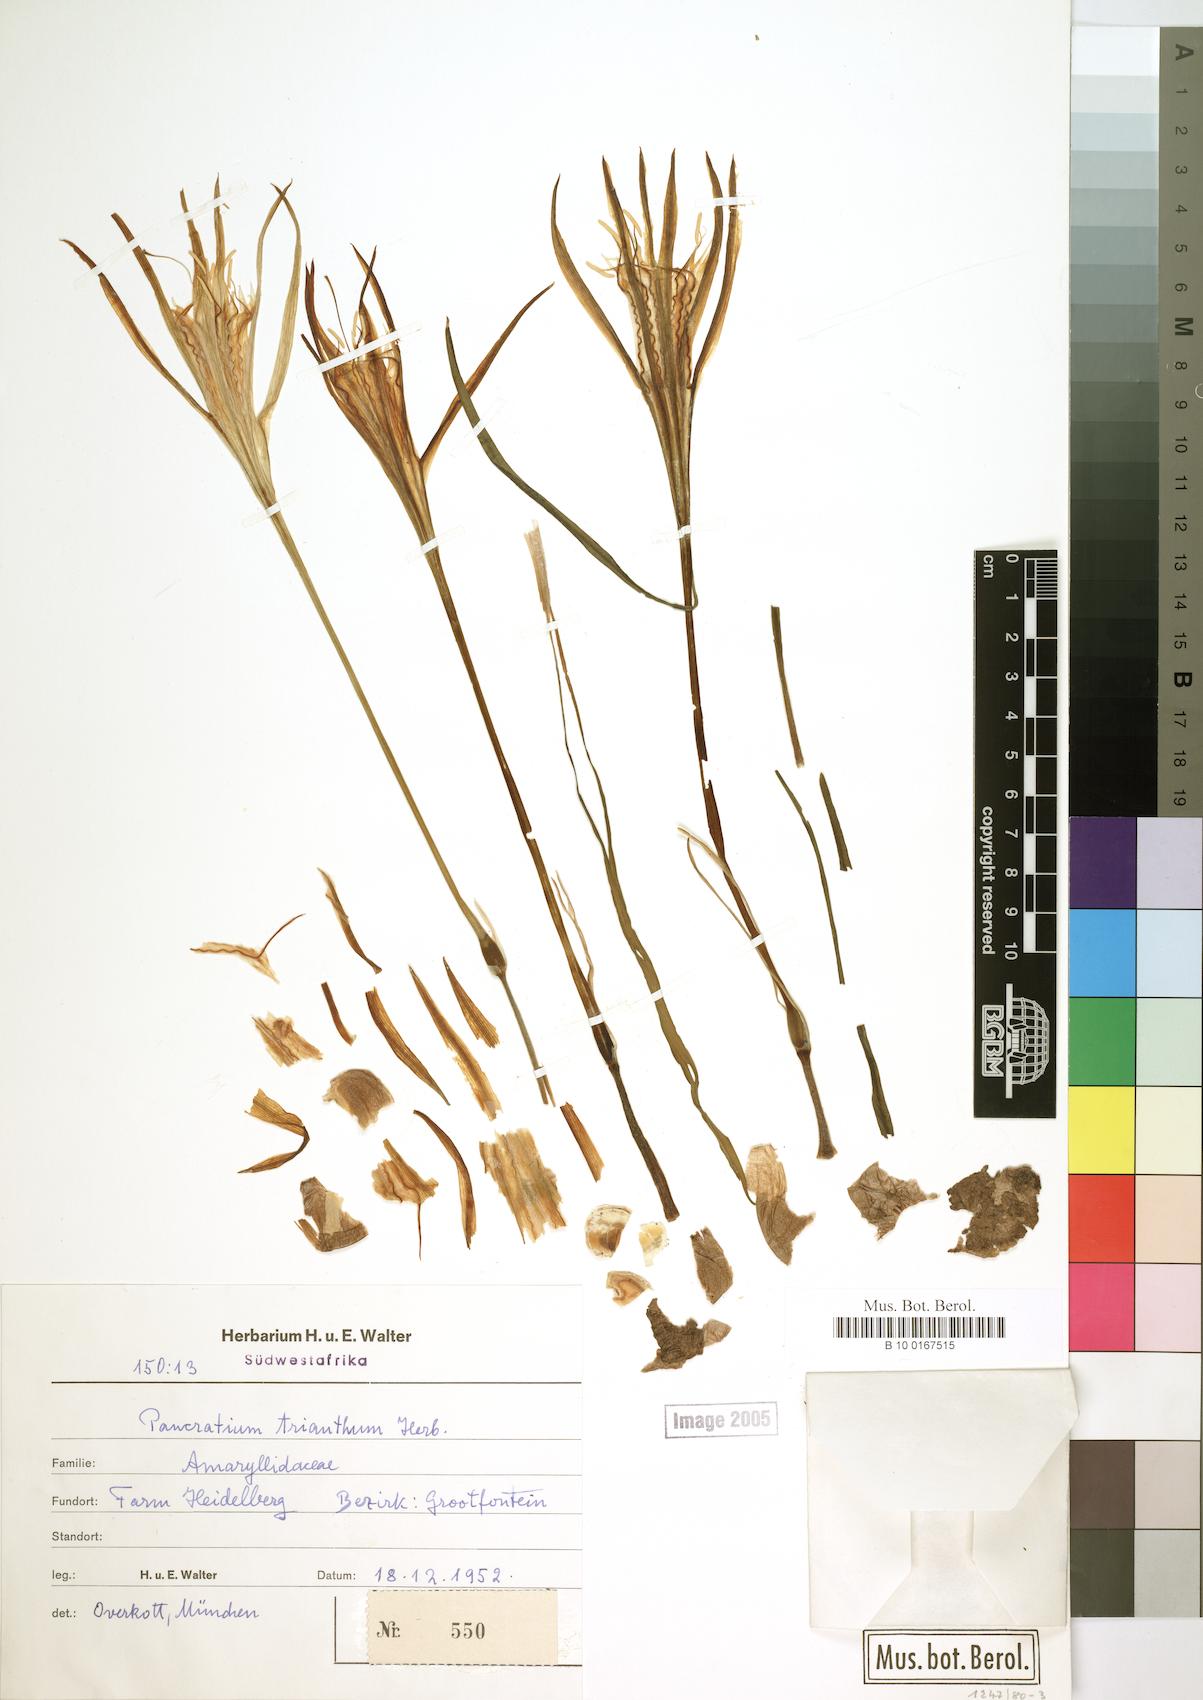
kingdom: Plantae
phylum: Tracheophyta
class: Liliopsida
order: Asparagales
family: Amaryllidaceae
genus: Pancratium
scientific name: Pancratium trianthum
